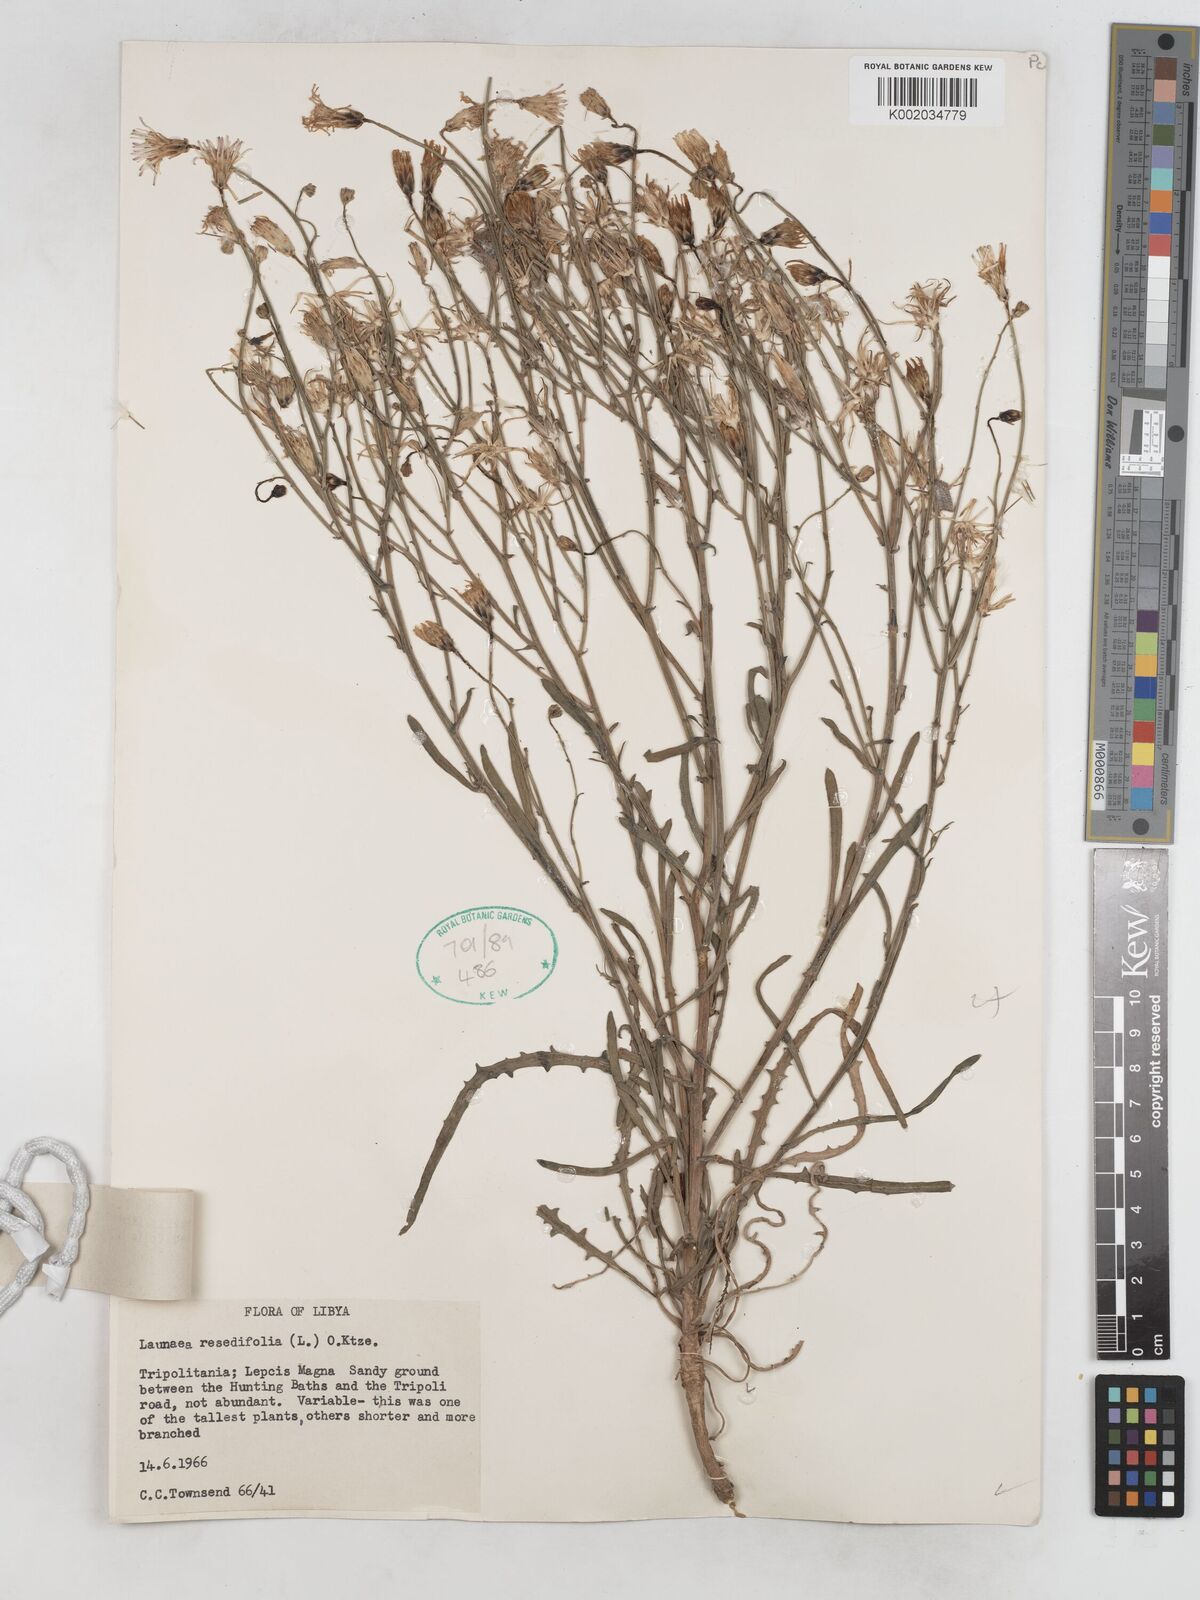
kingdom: Plantae
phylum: Tracheophyta
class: Magnoliopsida
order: Asterales
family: Asteraceae
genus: Launaea
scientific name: Launaea fragilis
